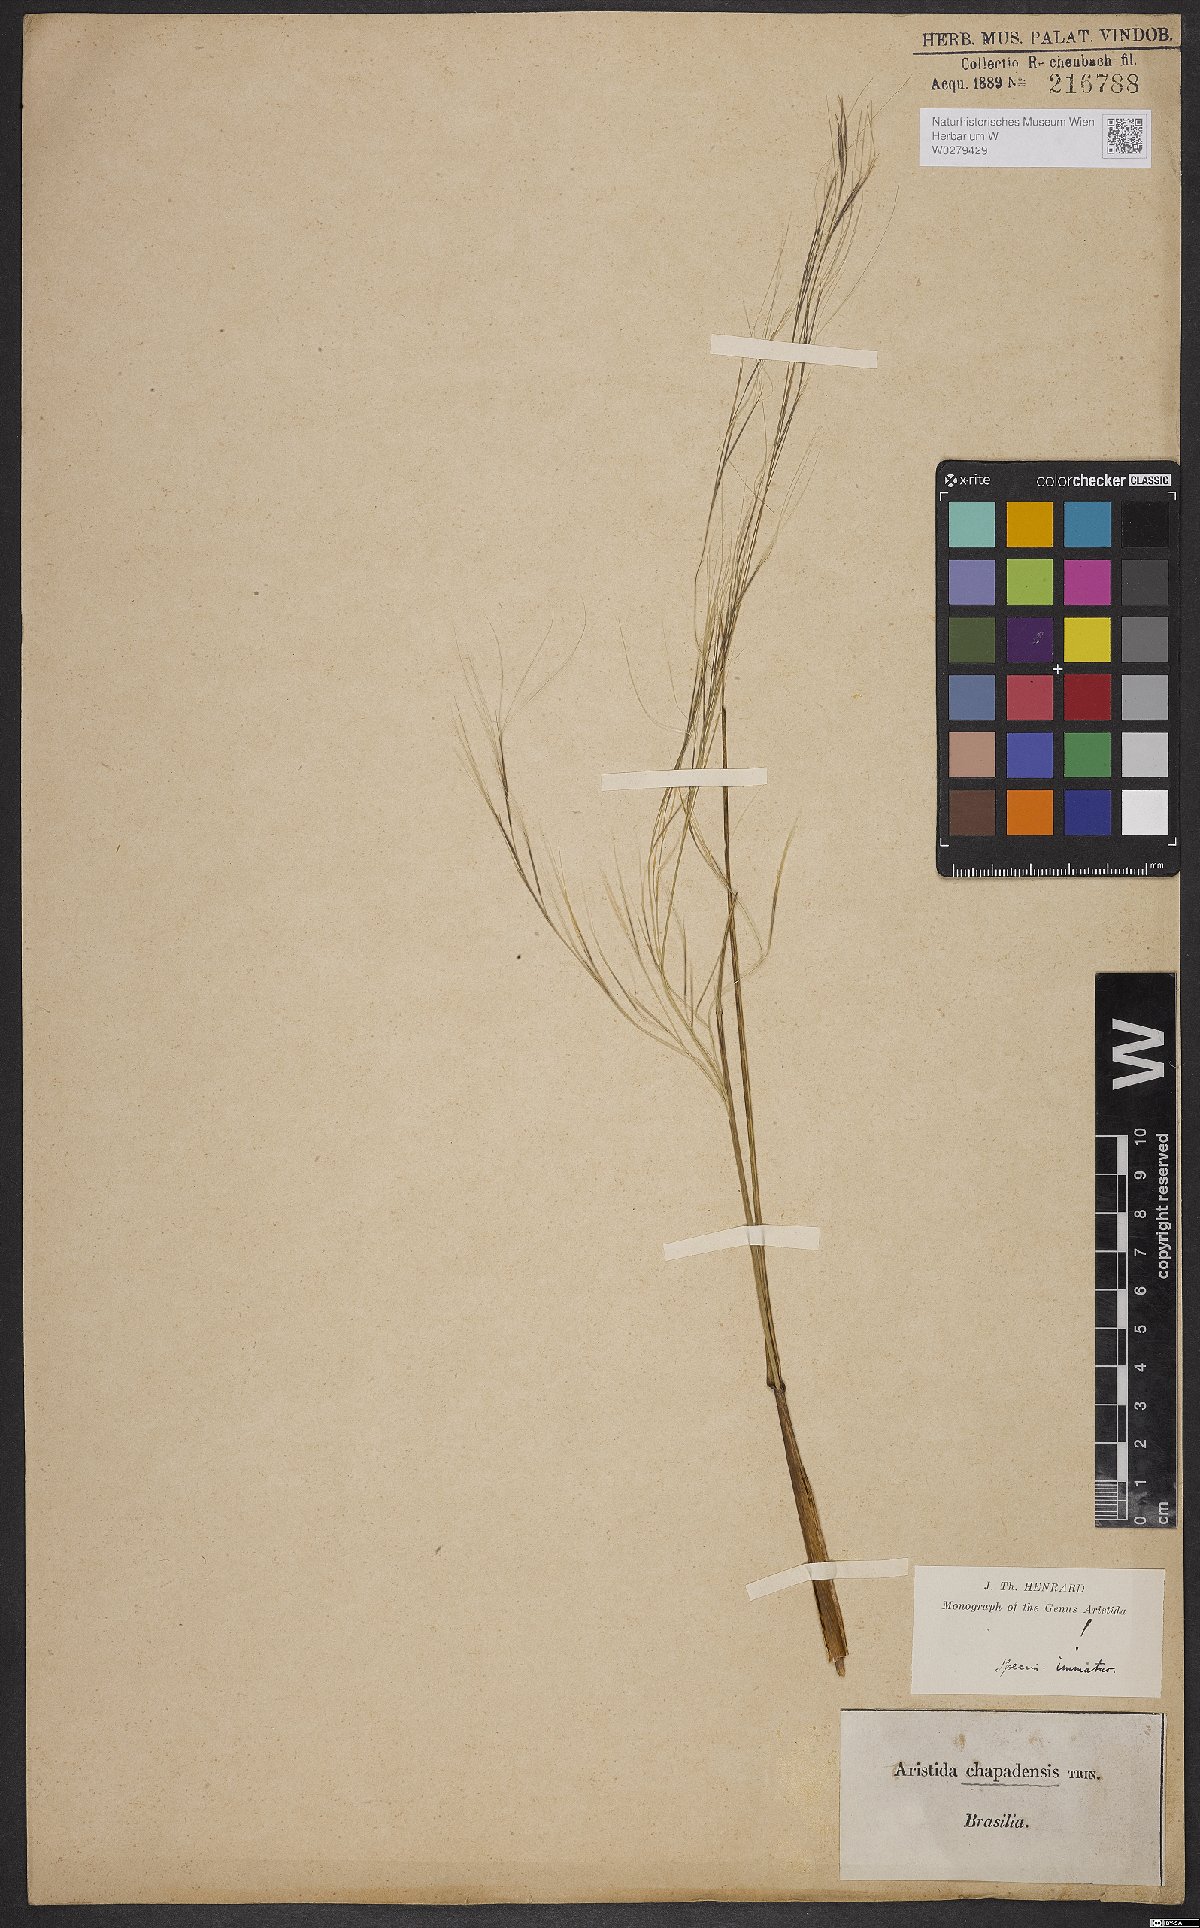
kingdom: Plantae
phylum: Tracheophyta
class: Liliopsida
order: Poales
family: Poaceae
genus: Aristida
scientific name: Aristida chapadensis
